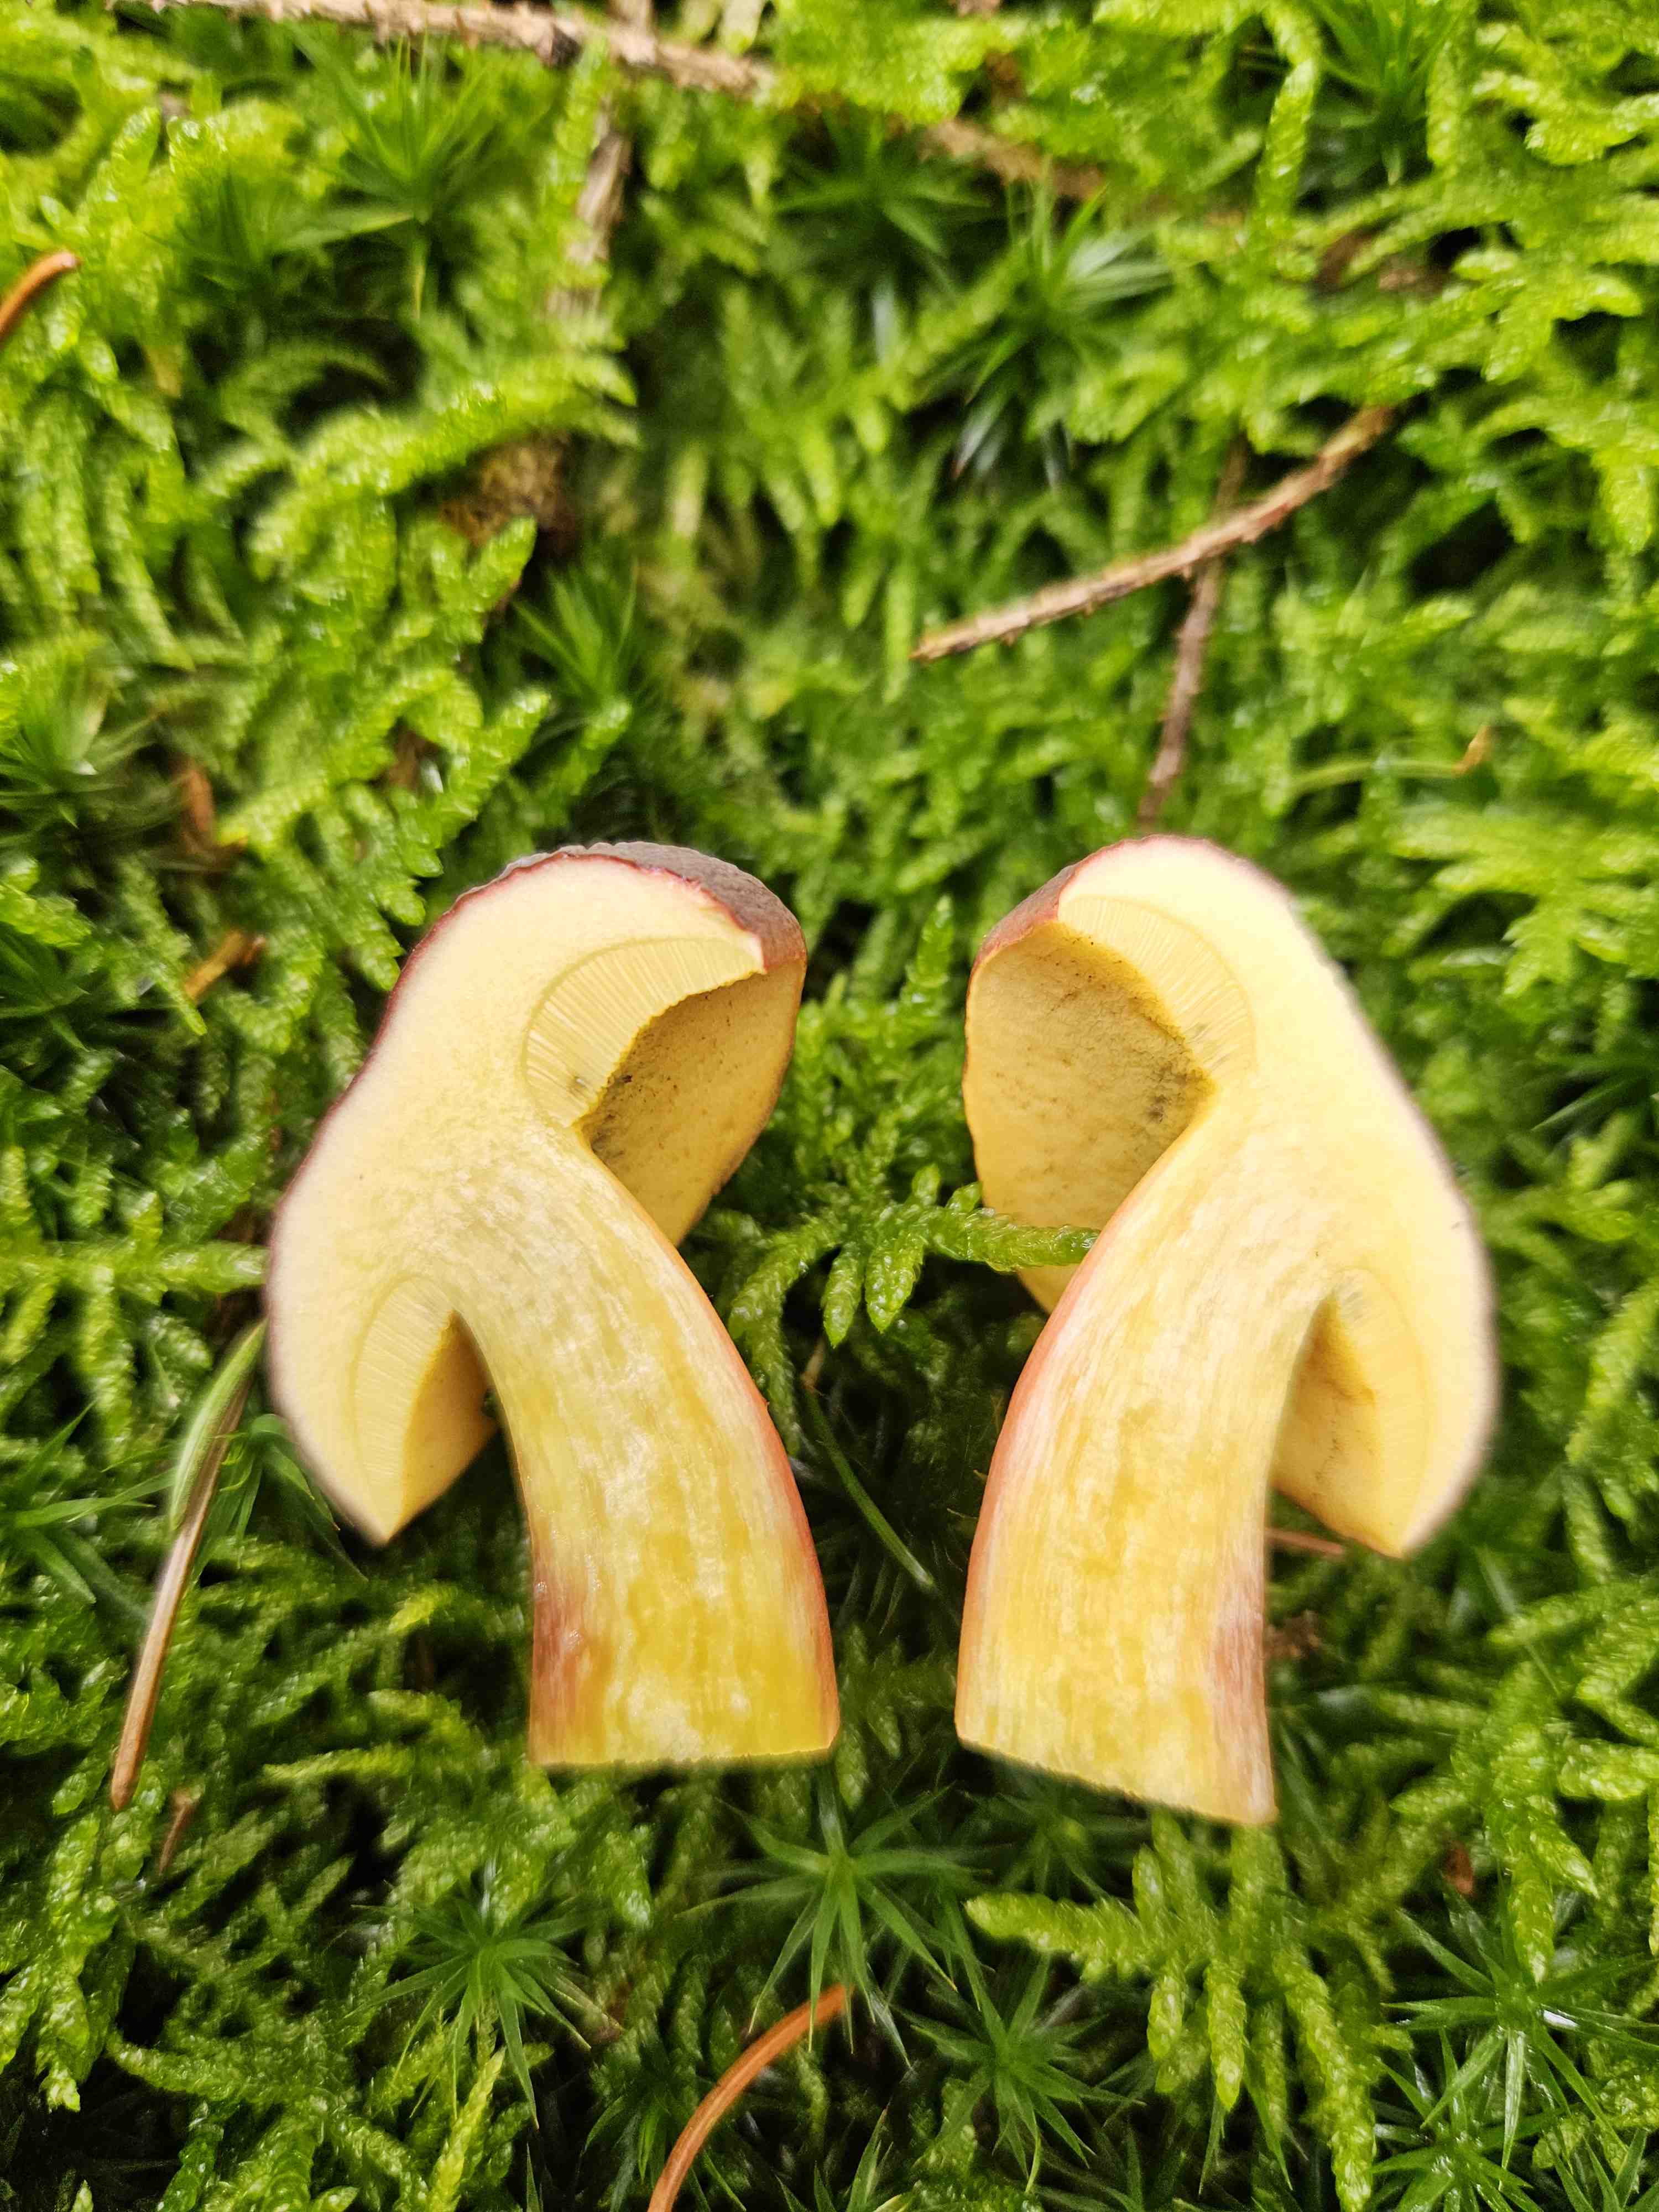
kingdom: Fungi
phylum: Basidiomycota
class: Agaricomycetes
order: Boletales
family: Boletaceae
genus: Xerocomellus
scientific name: Xerocomellus pruinatus
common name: dugget rørhat
